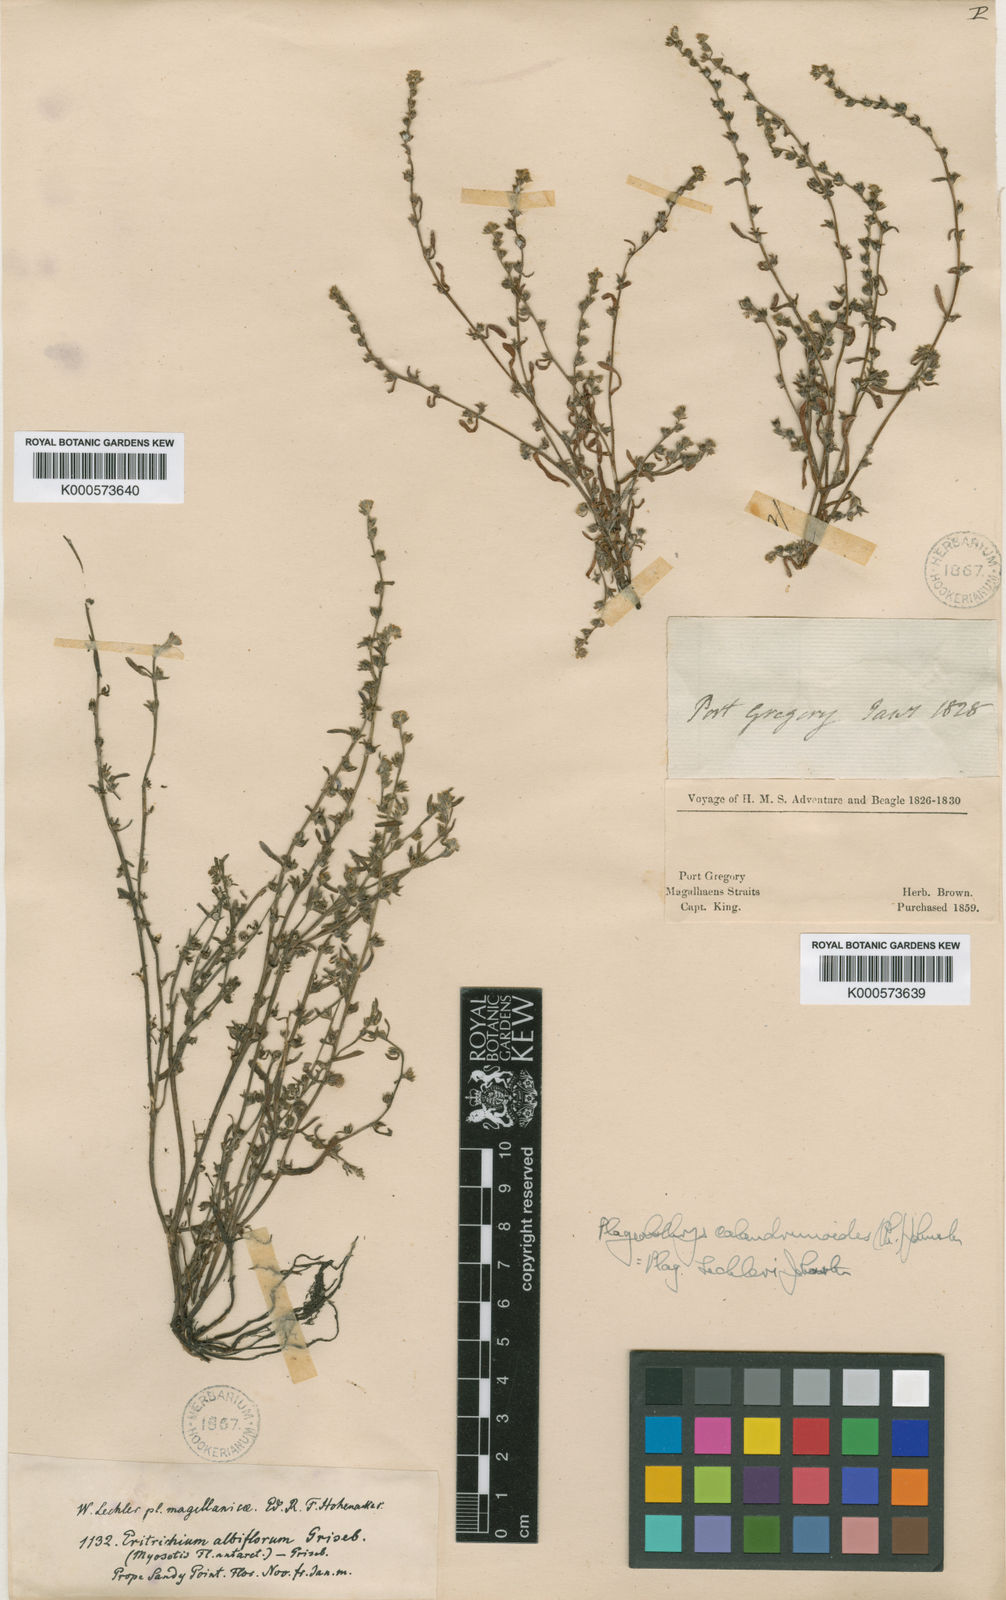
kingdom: Plantae
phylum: Tracheophyta
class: Magnoliopsida
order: Boraginales
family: Boraginaceae
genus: Plagiobothrys
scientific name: Plagiobothrys calandrinioides
